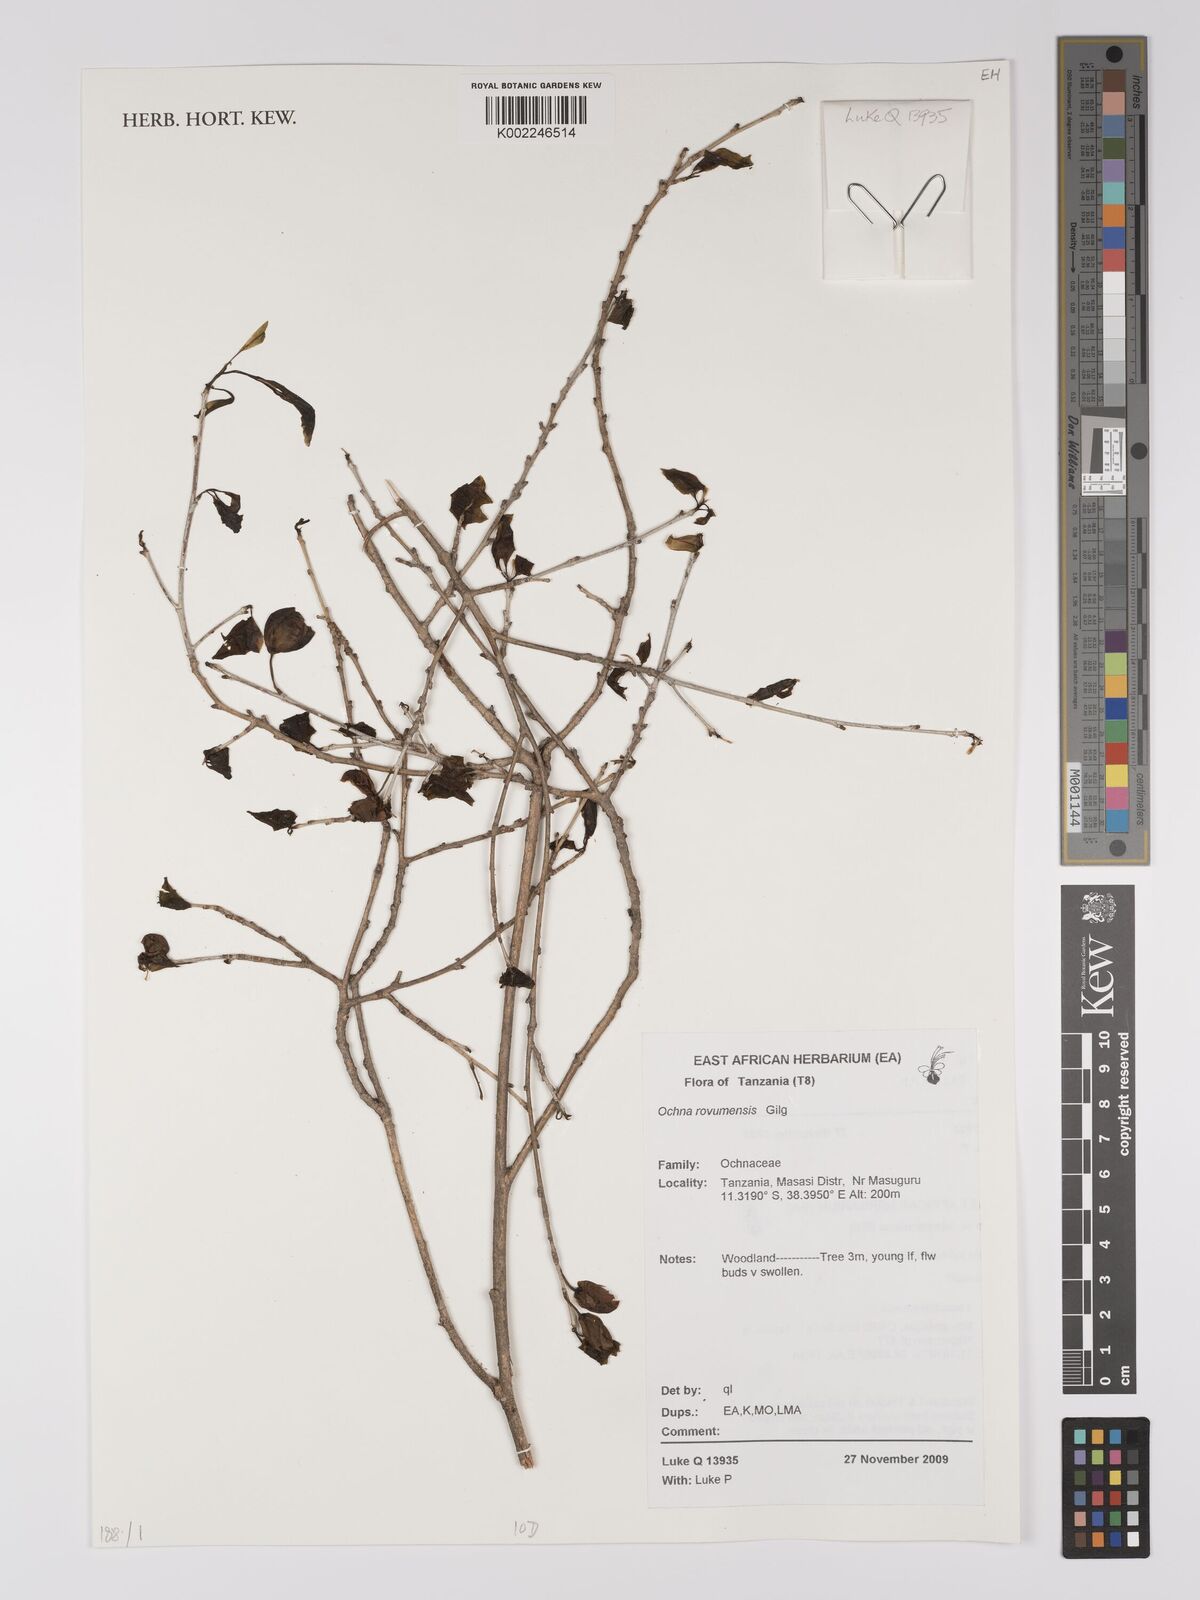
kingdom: Plantae
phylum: Tracheophyta
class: Magnoliopsida
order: Malpighiales
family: Ochnaceae
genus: Ochna
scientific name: Ochna rovumensis
